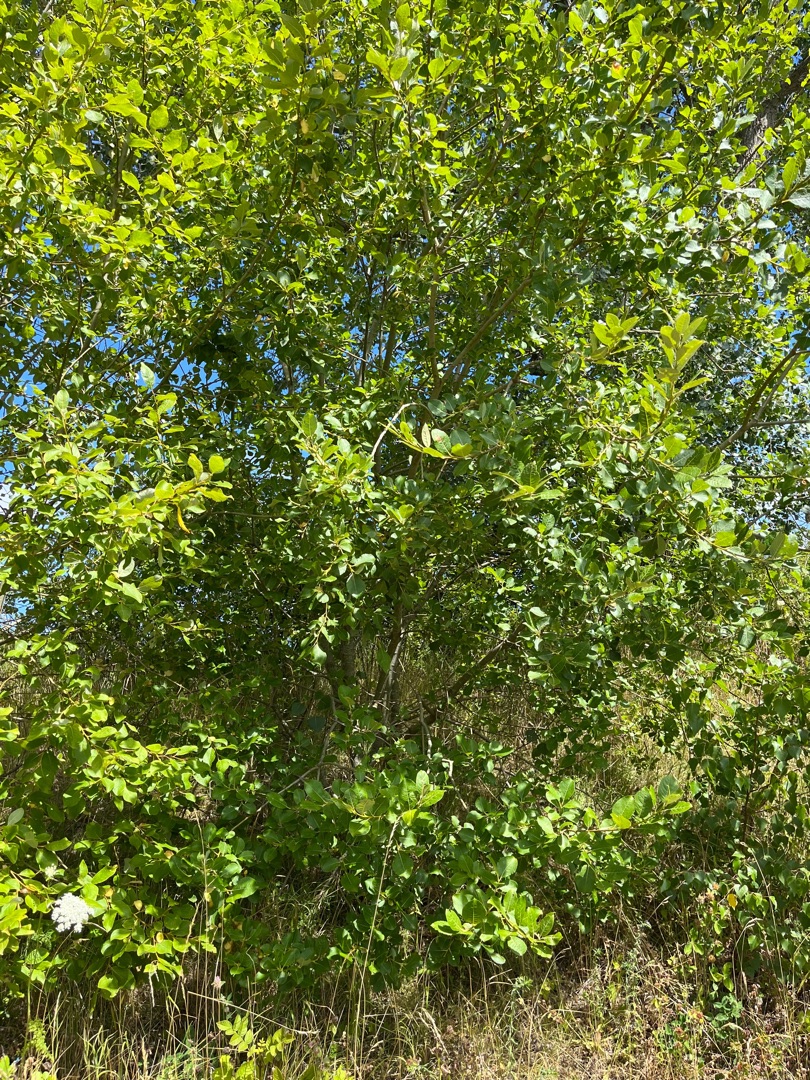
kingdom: Plantae
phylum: Tracheophyta
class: Magnoliopsida
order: Malpighiales
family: Salicaceae
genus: Salix
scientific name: Salix caprea
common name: Selje-pil
